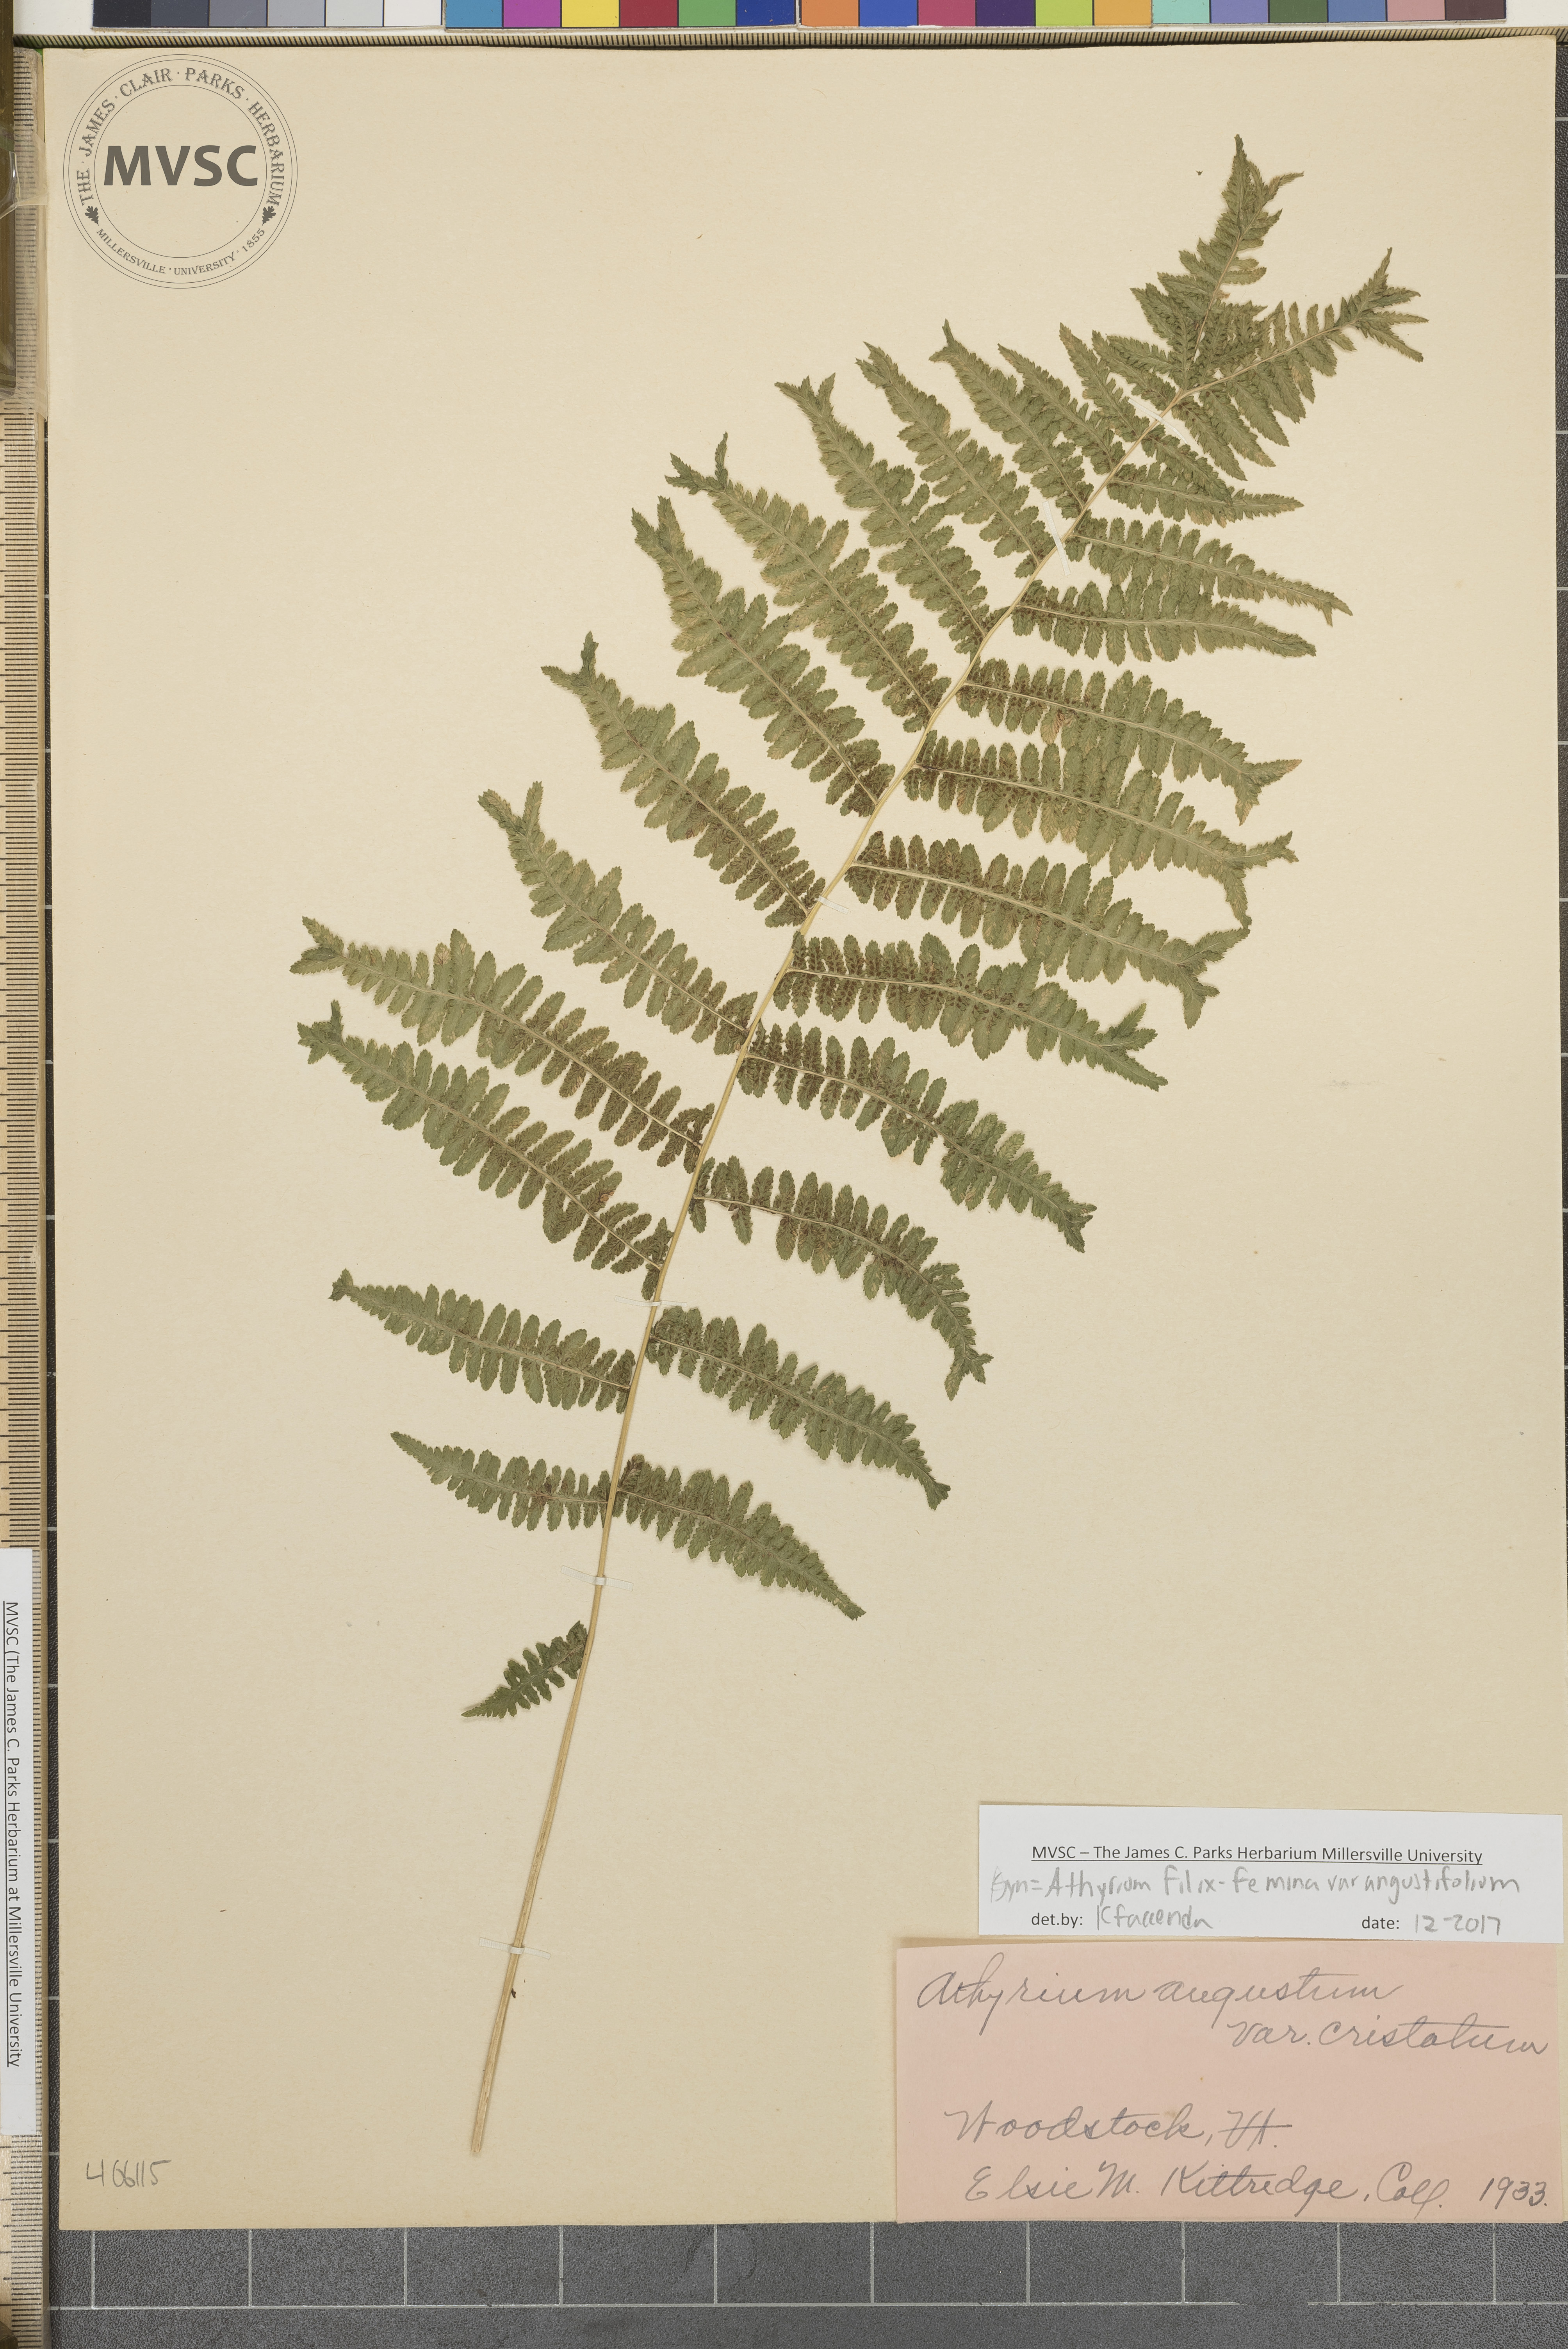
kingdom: Plantae
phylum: Tracheophyta
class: Polypodiopsida
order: Polypodiales
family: Athyriaceae
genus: Athyrium
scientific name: Athyrium filix-femina
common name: Lady fern
